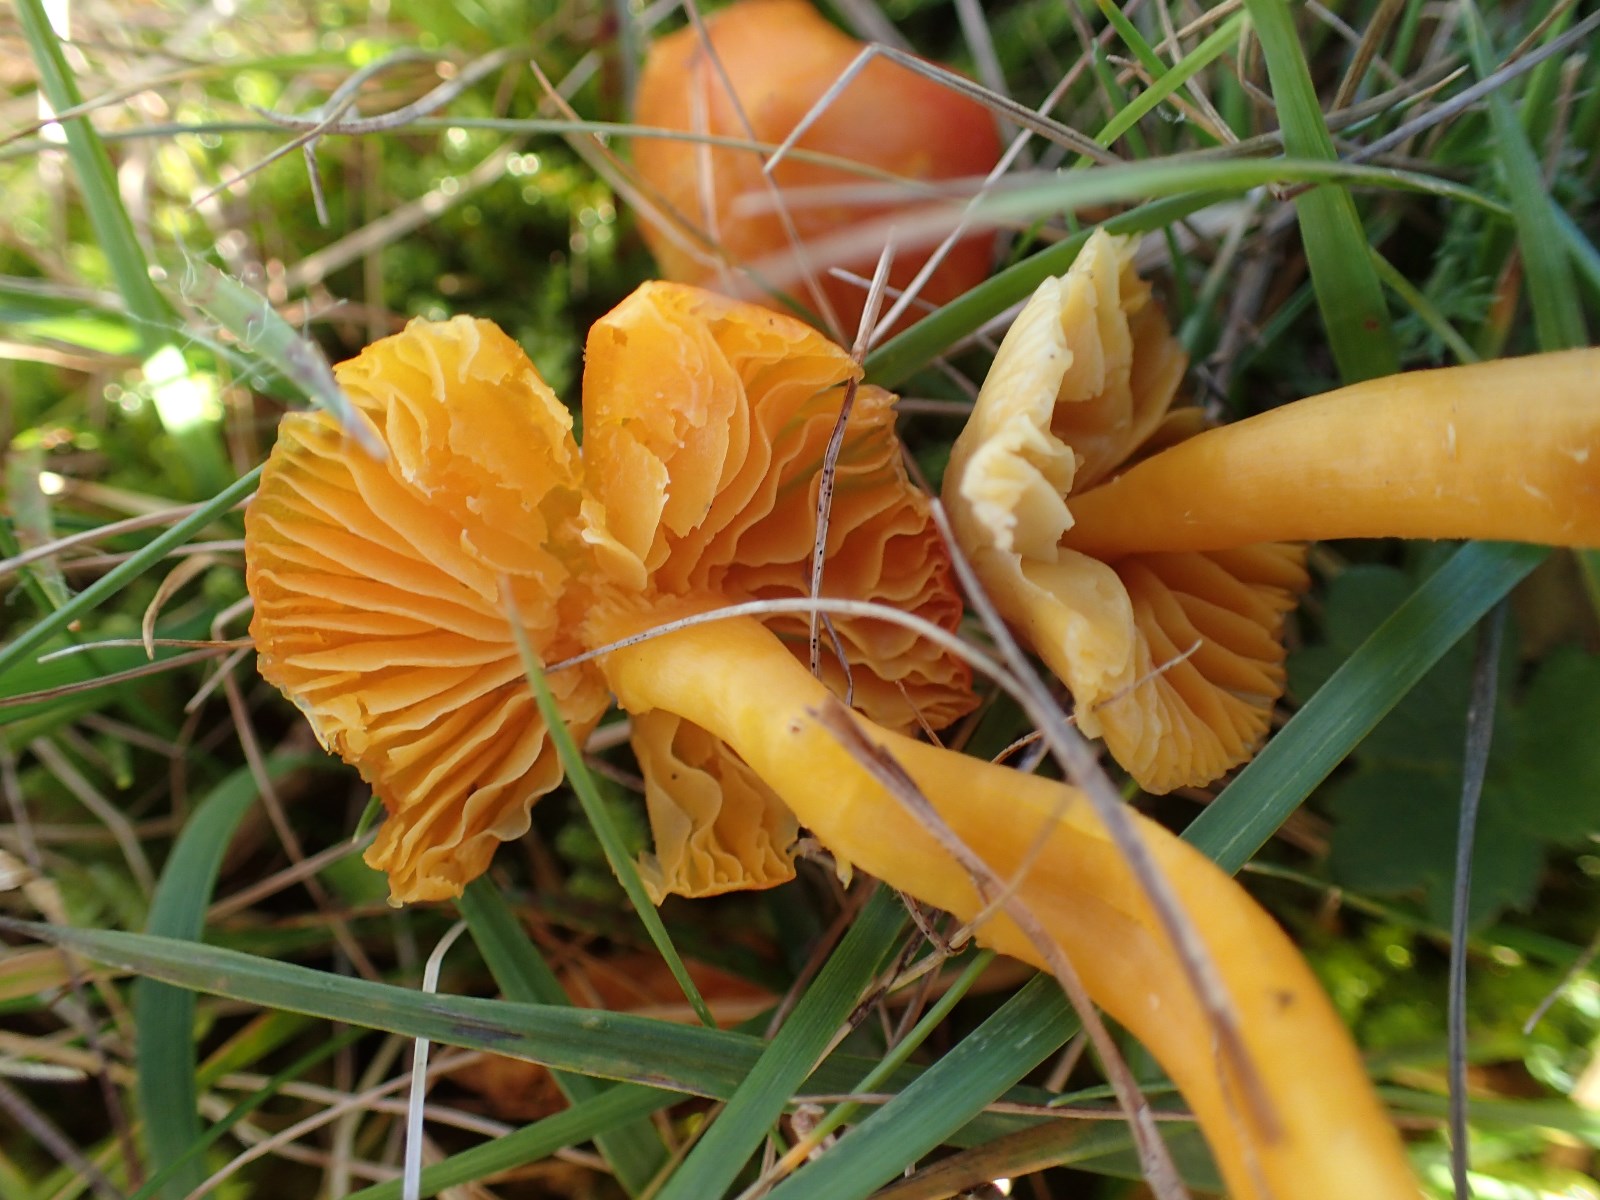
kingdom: Fungi
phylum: Basidiomycota
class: Agaricomycetes
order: Agaricales
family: Hygrophoraceae
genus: Hygrocybe
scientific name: Hygrocybe chlorophana
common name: gul vokshat
